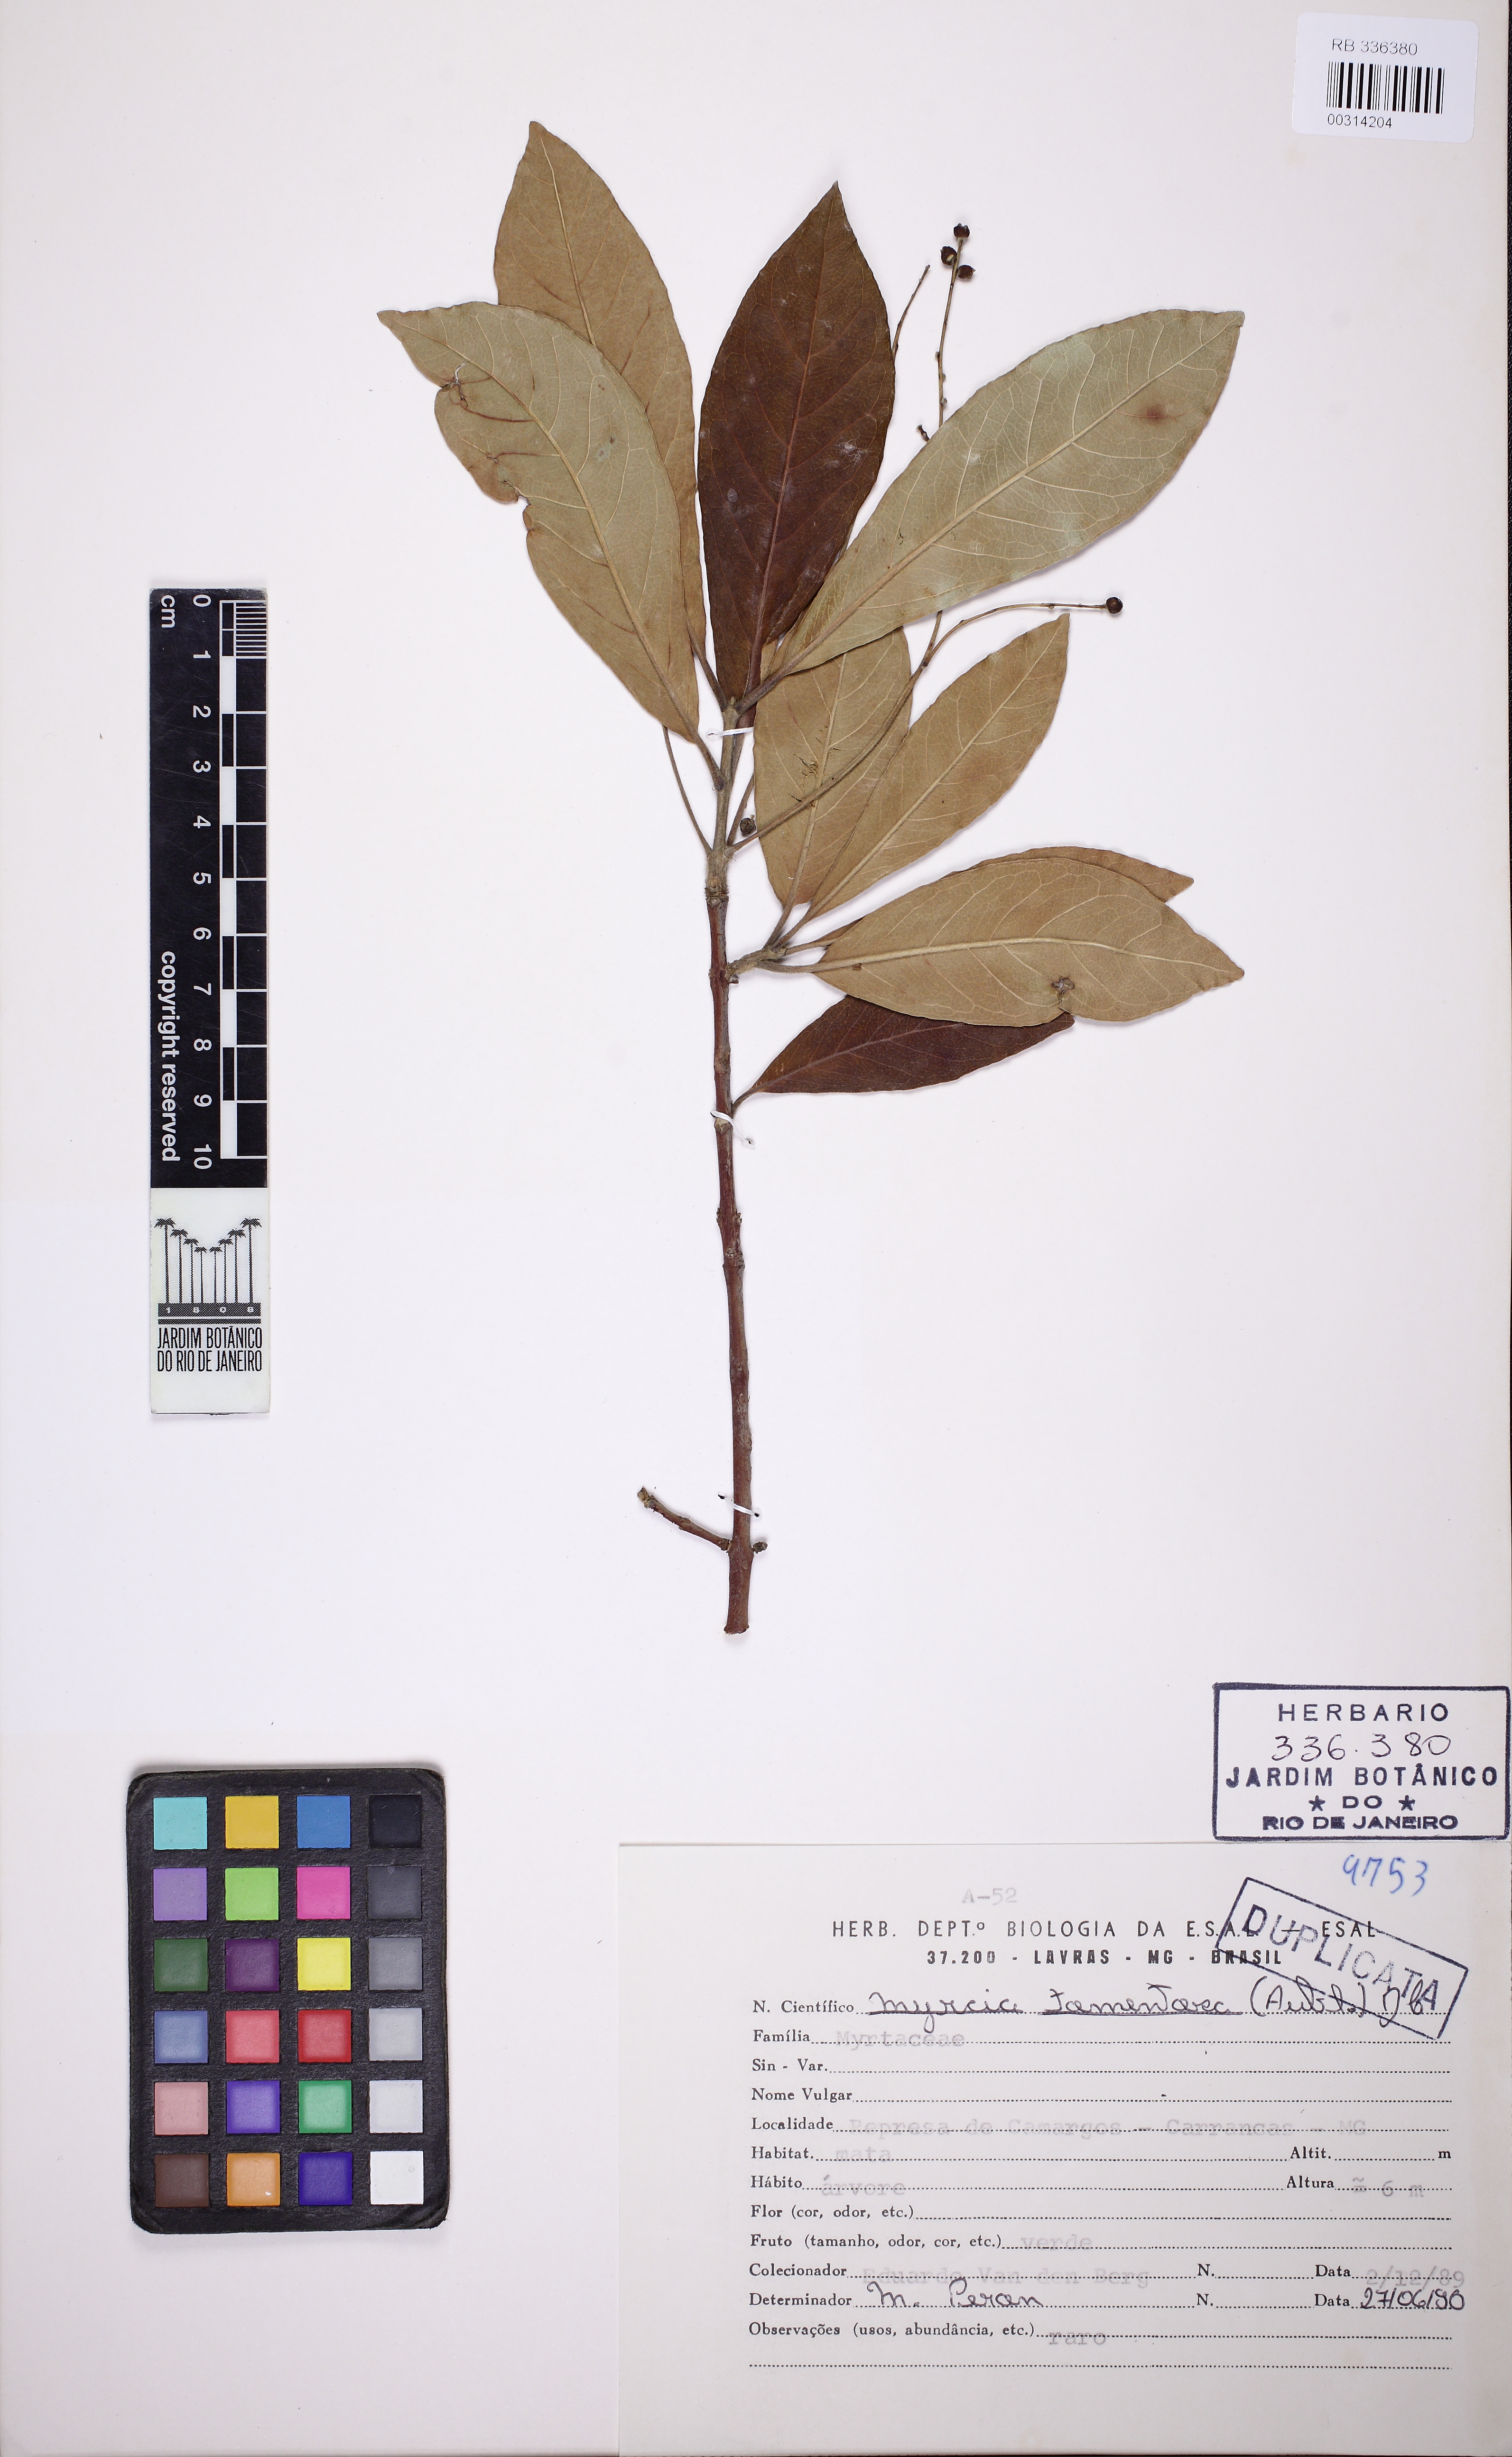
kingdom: Plantae
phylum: Tracheophyta
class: Magnoliopsida
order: Myrtales
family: Myrtaceae
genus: Myrcia
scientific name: Myrcia tomentosa
